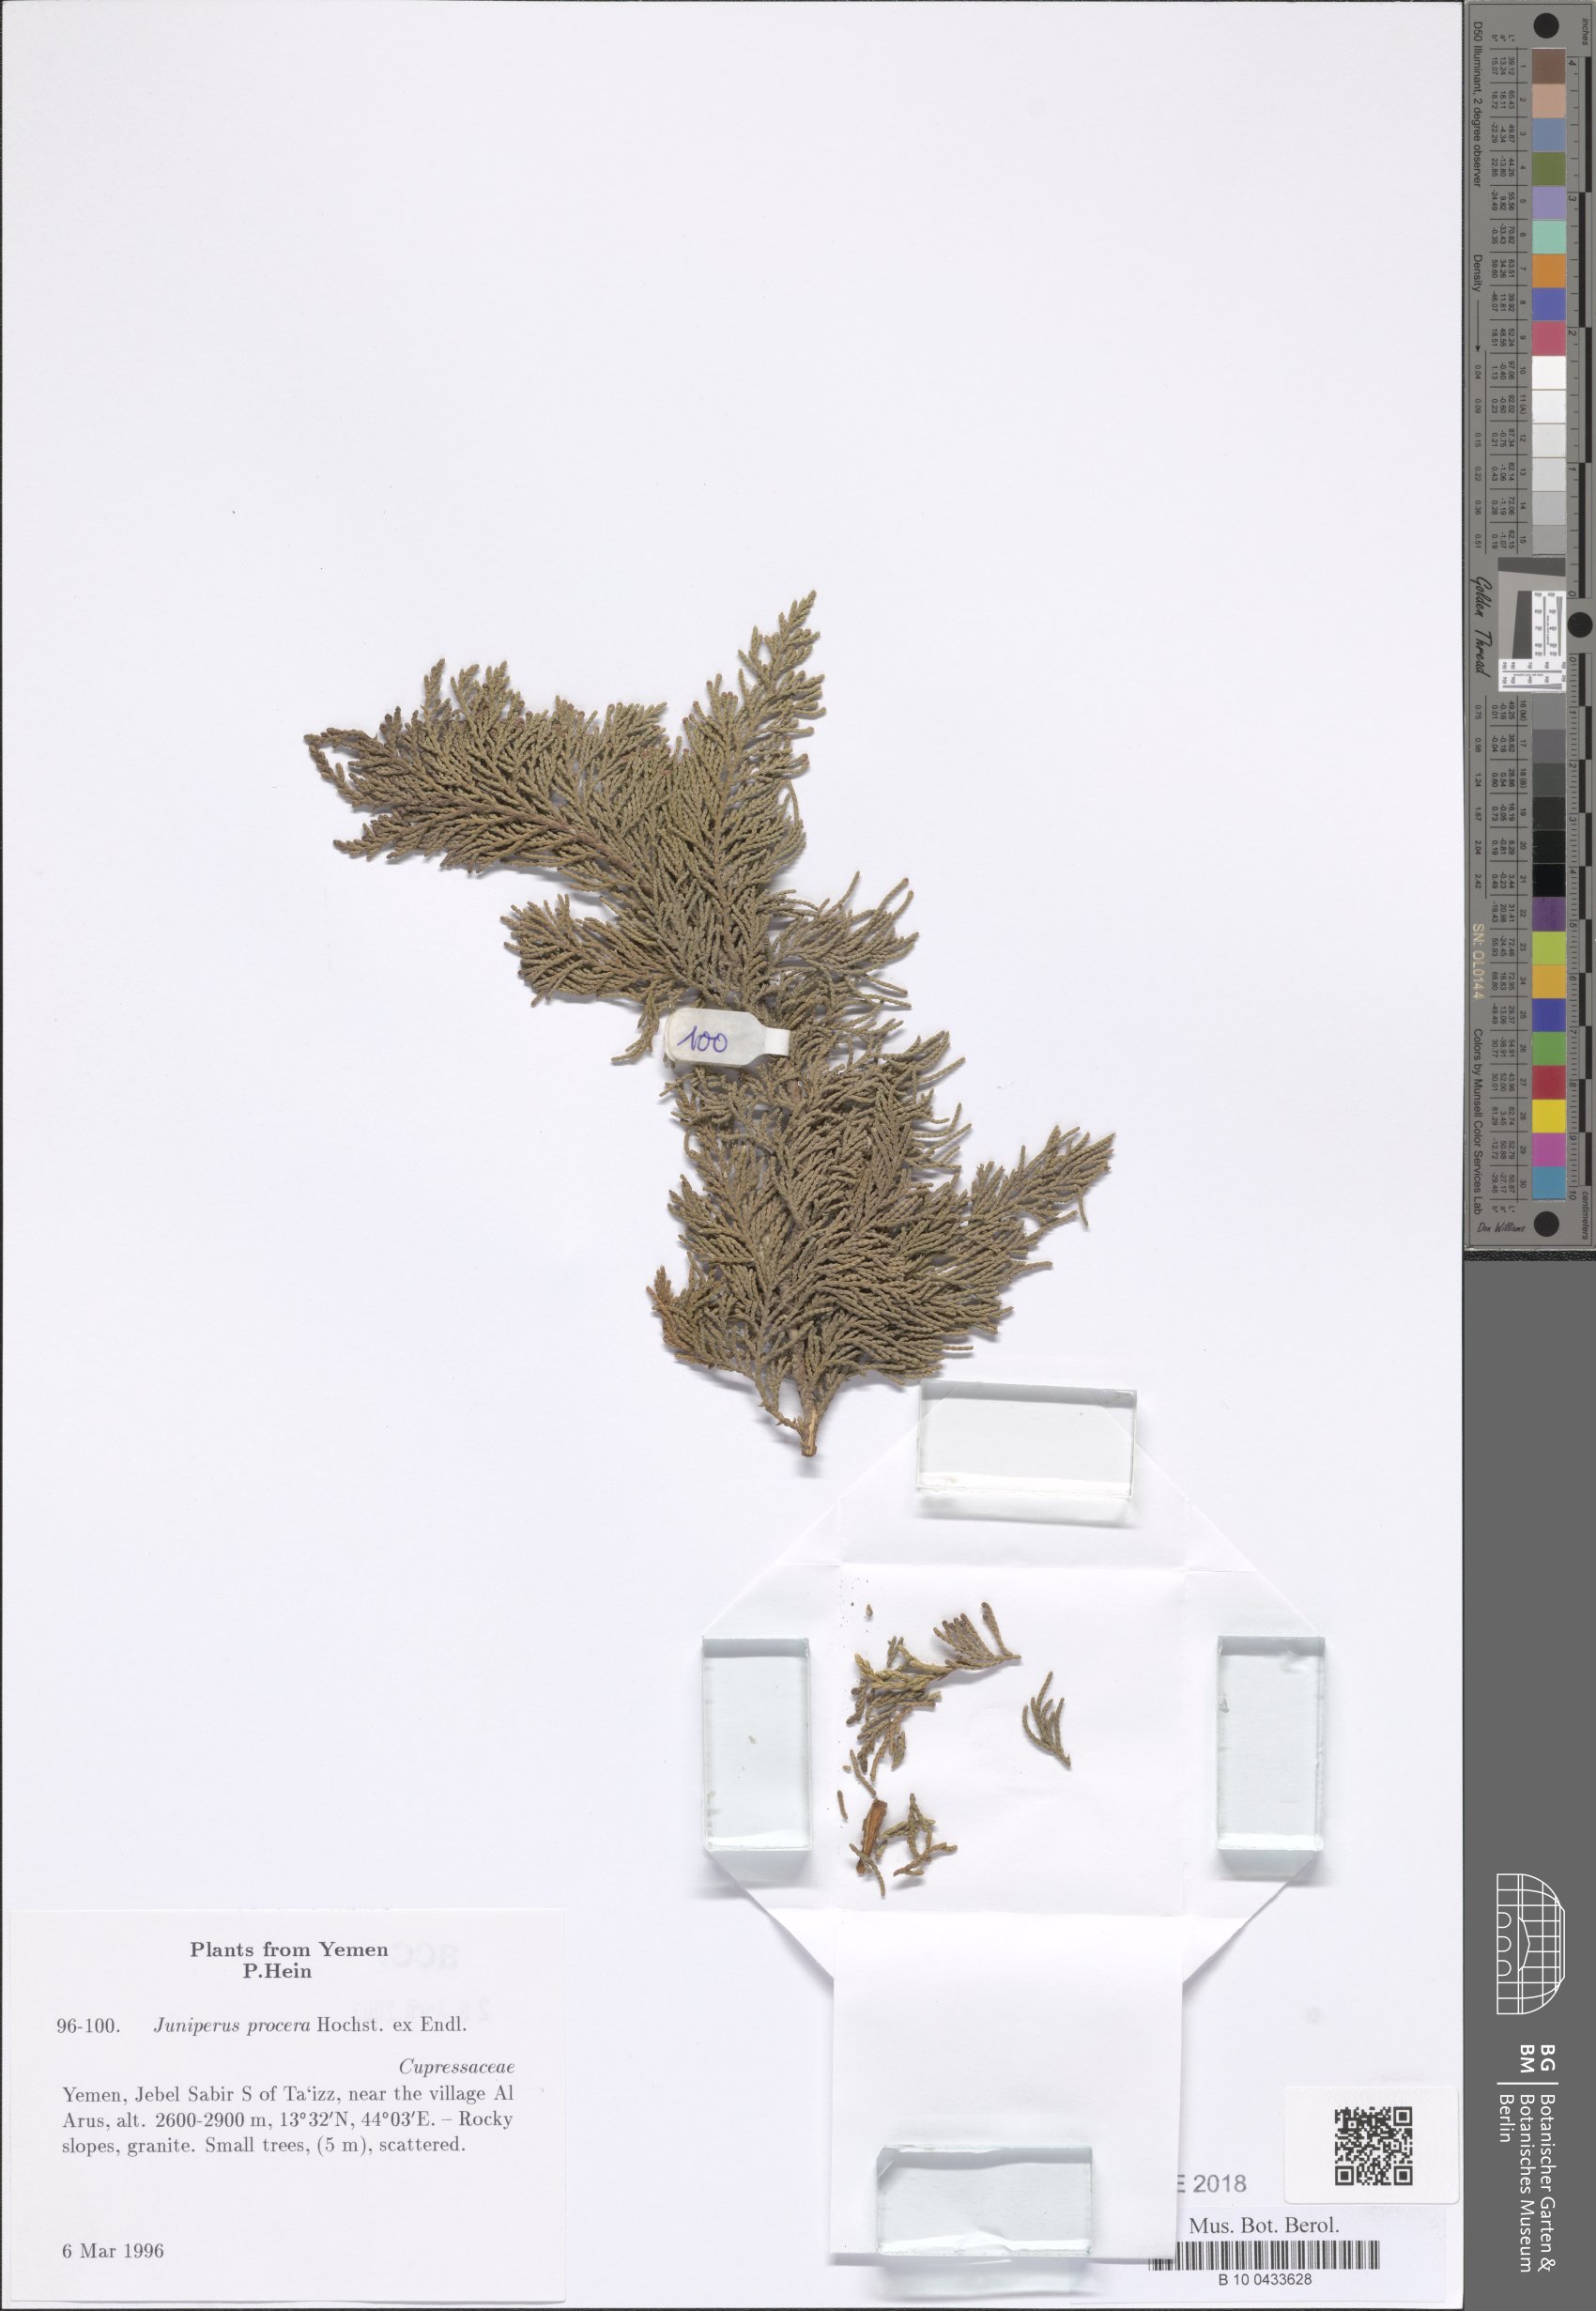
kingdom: Plantae
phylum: Tracheophyta
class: Pinopsida
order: Pinales
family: Cupressaceae
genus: Juniperus
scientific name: Juniperus procera
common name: African juniper
